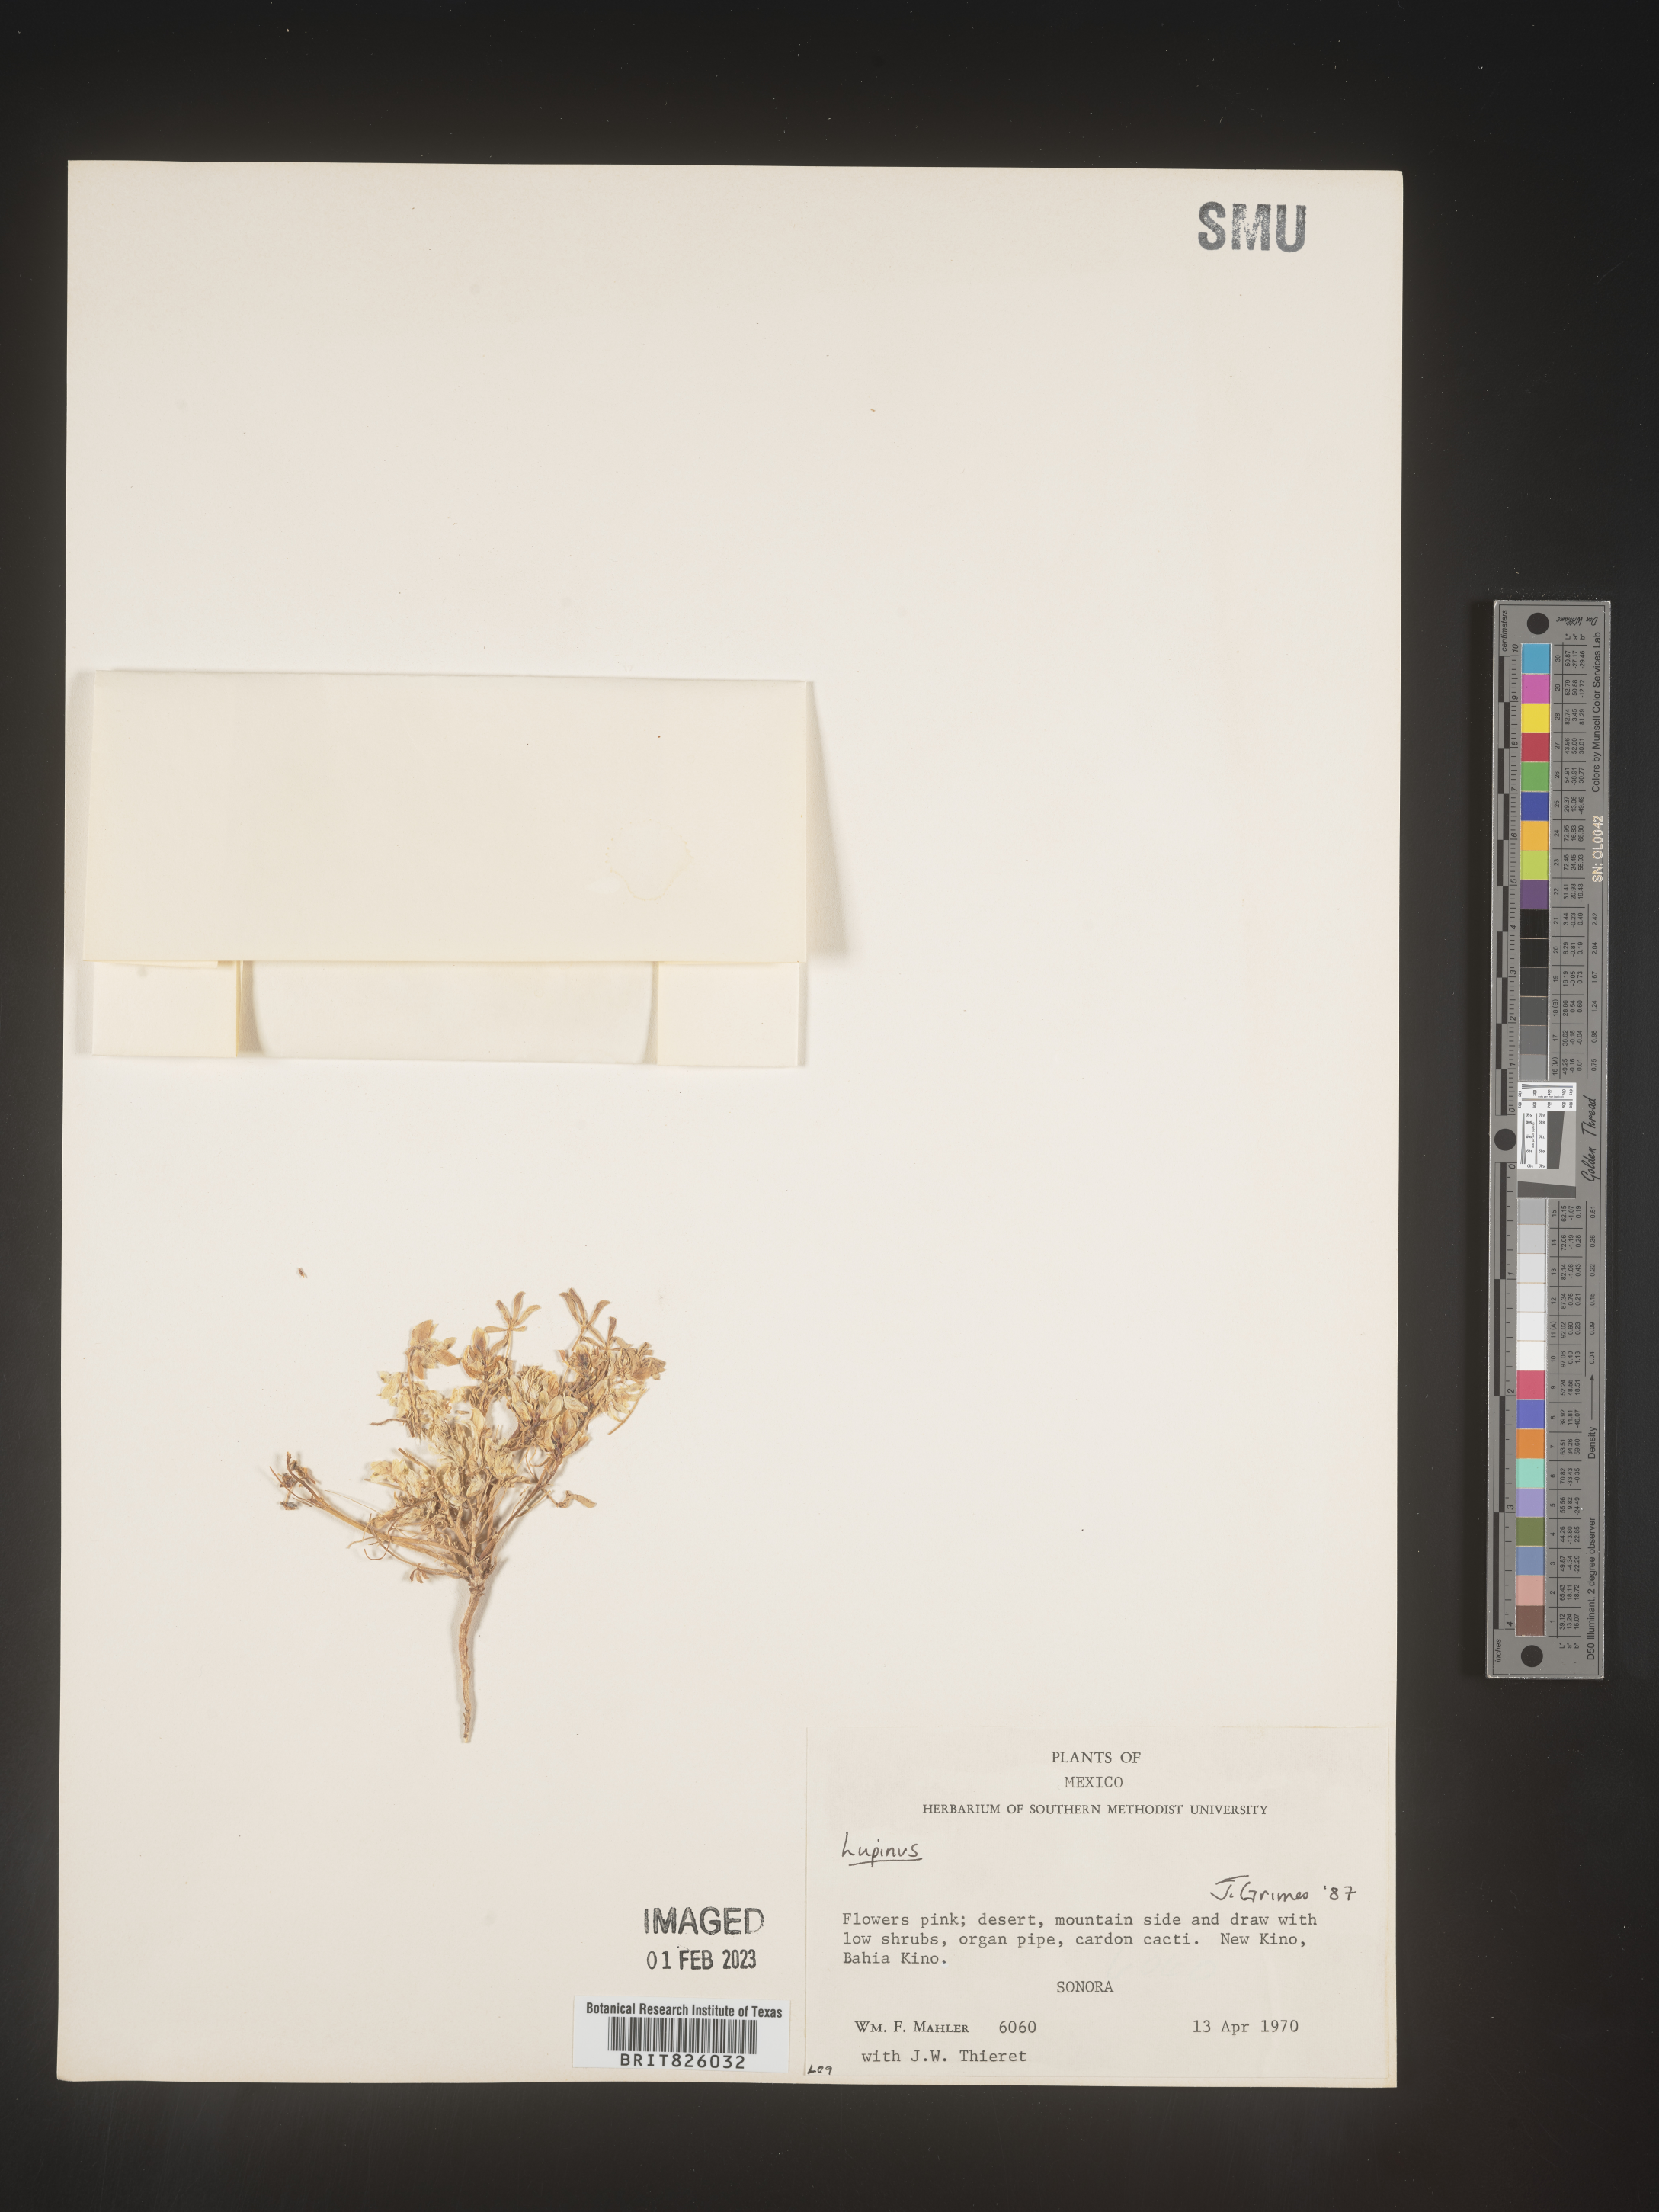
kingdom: Plantae
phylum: Tracheophyta
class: Magnoliopsida
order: Fabales
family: Fabaceae
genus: Lupinus
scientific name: Lupinus
